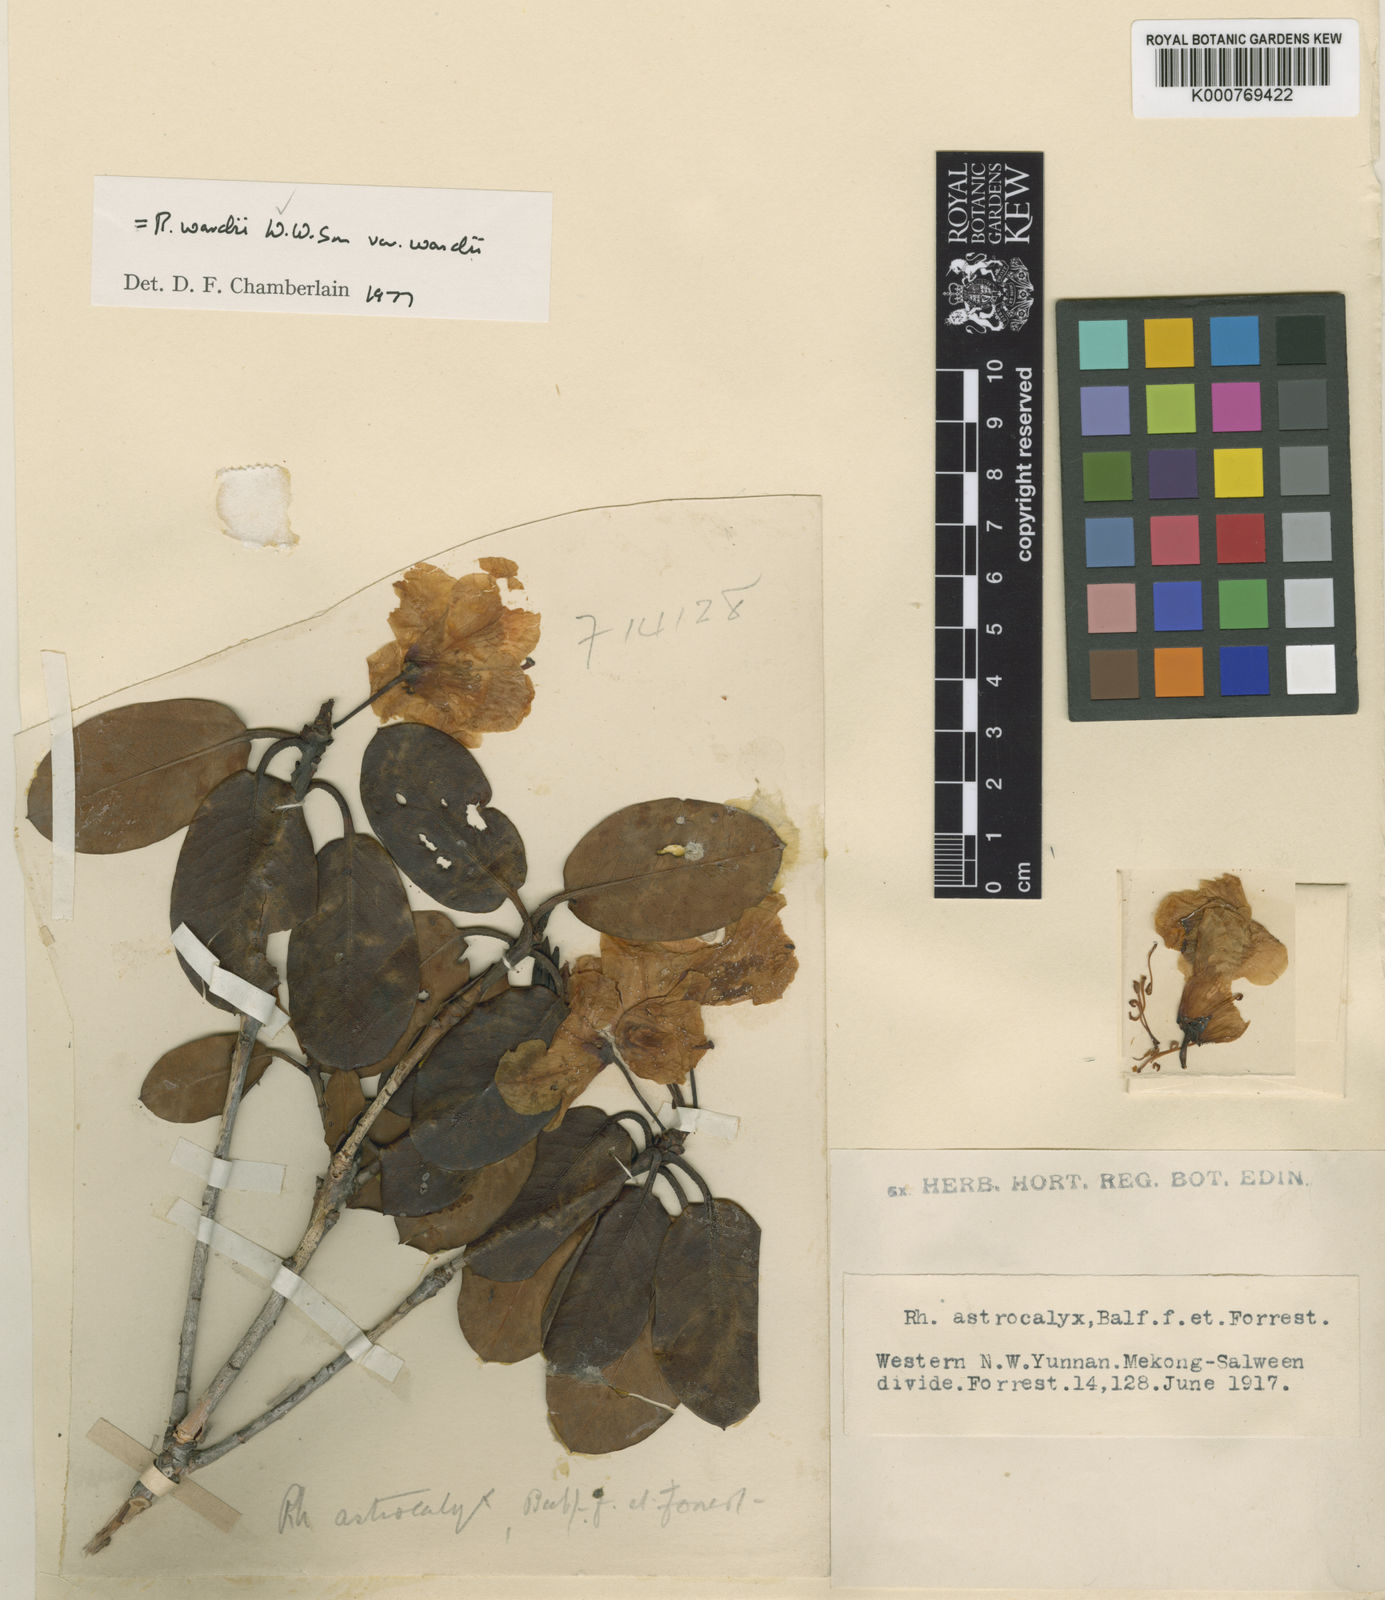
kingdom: Plantae
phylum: Tracheophyta
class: Magnoliopsida
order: Ericales
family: Ericaceae
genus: Rhododendron
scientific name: Rhododendron wardii
